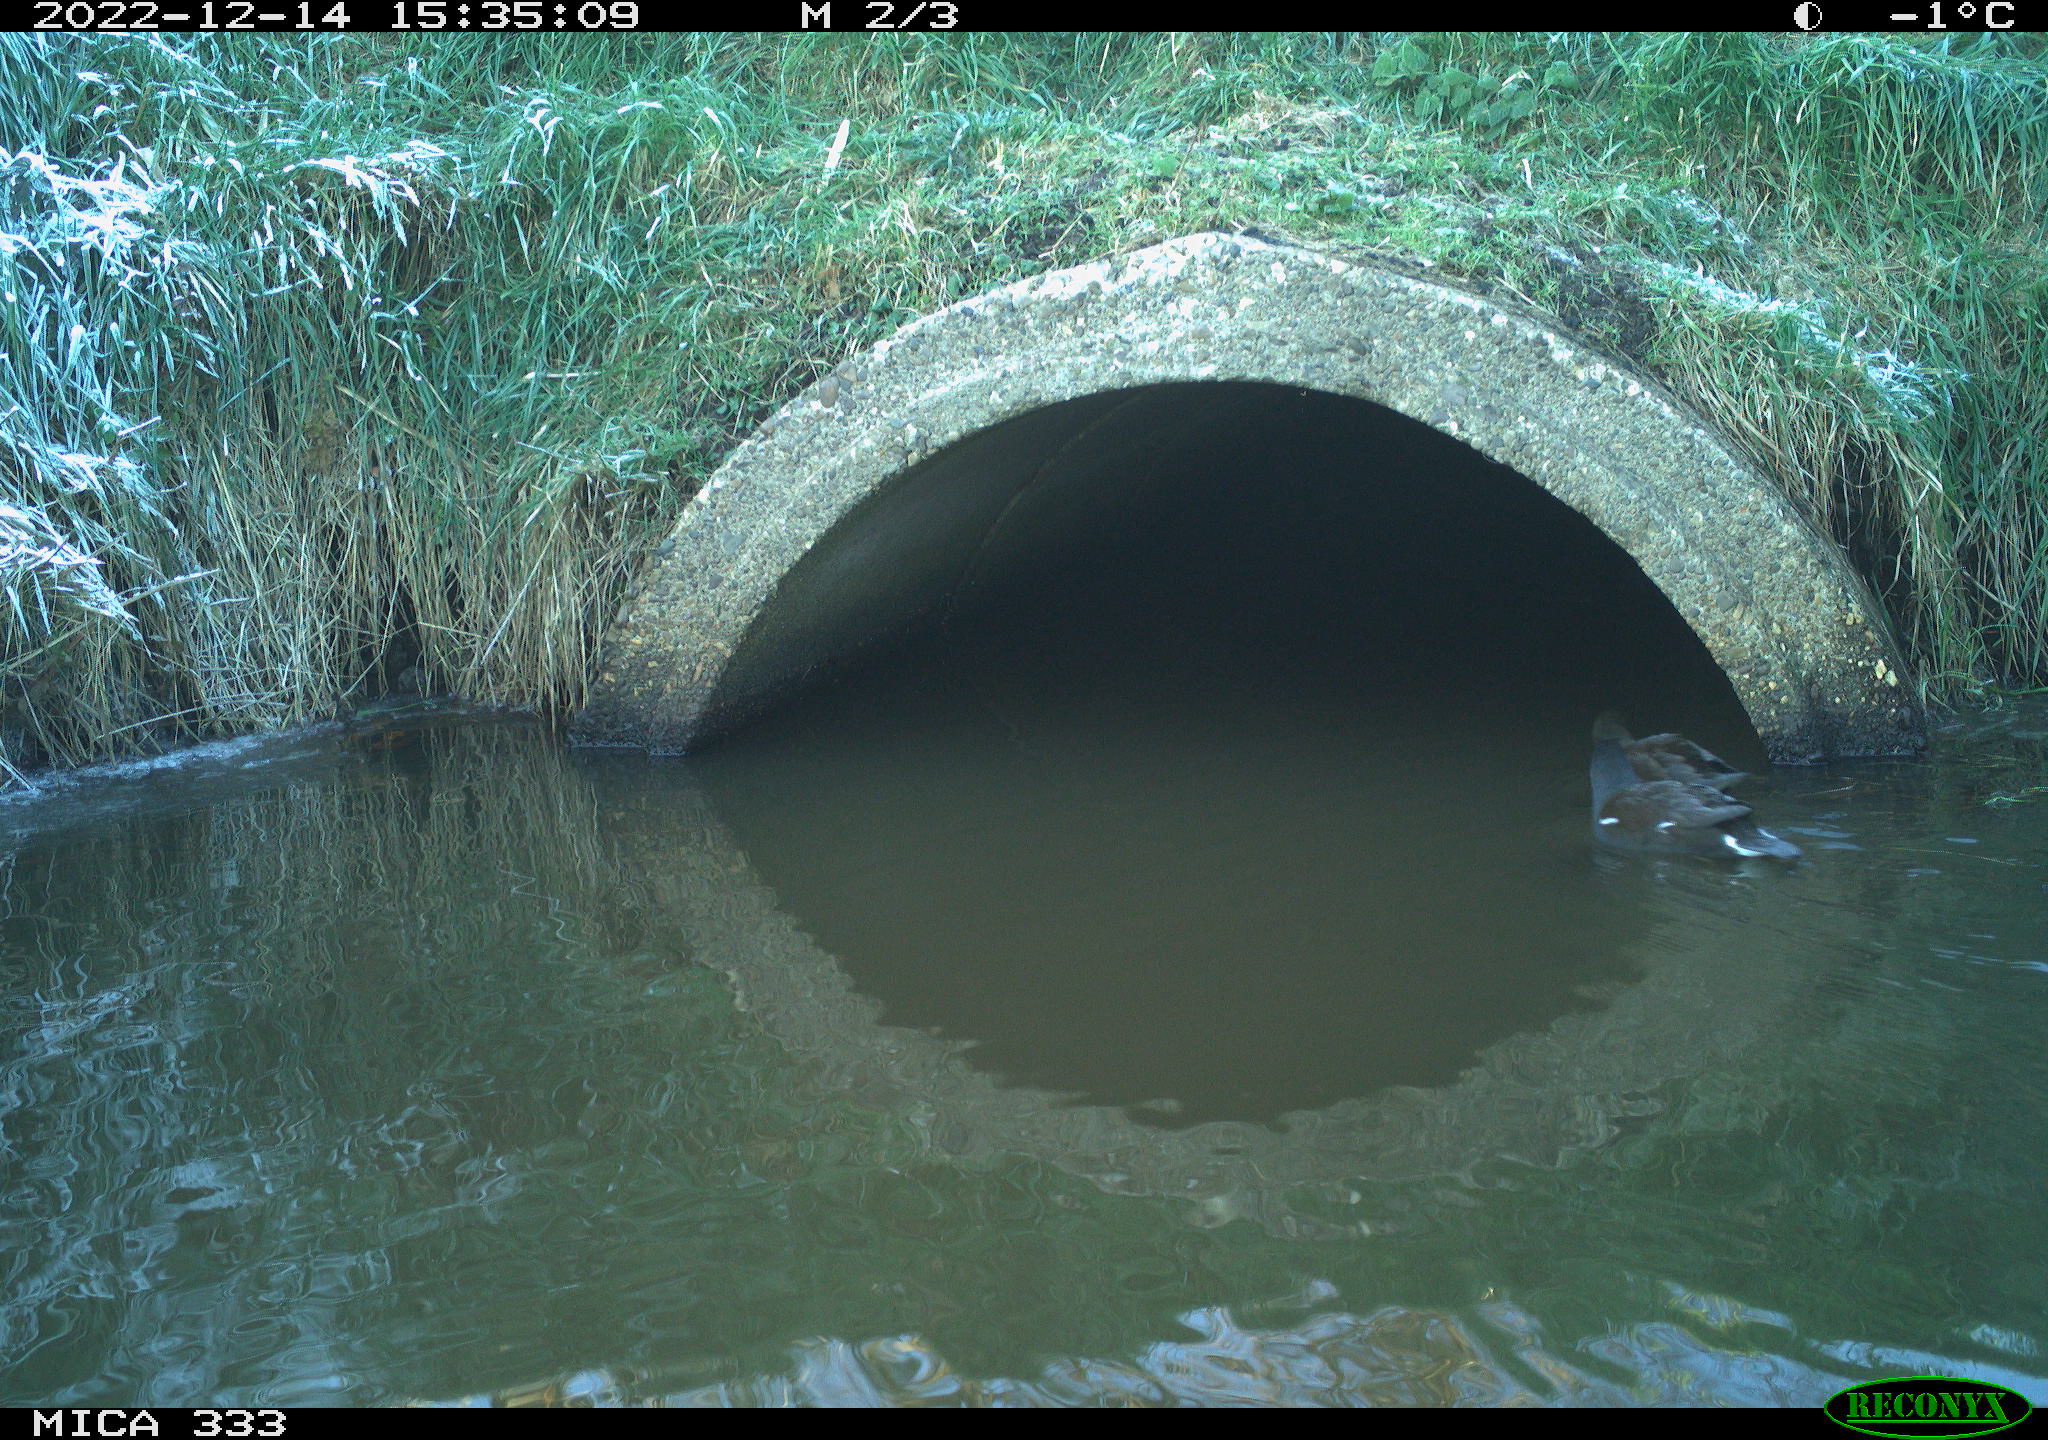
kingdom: Animalia
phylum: Chordata
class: Aves
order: Gruiformes
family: Rallidae
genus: Gallinula
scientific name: Gallinula chloropus
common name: Common moorhen
